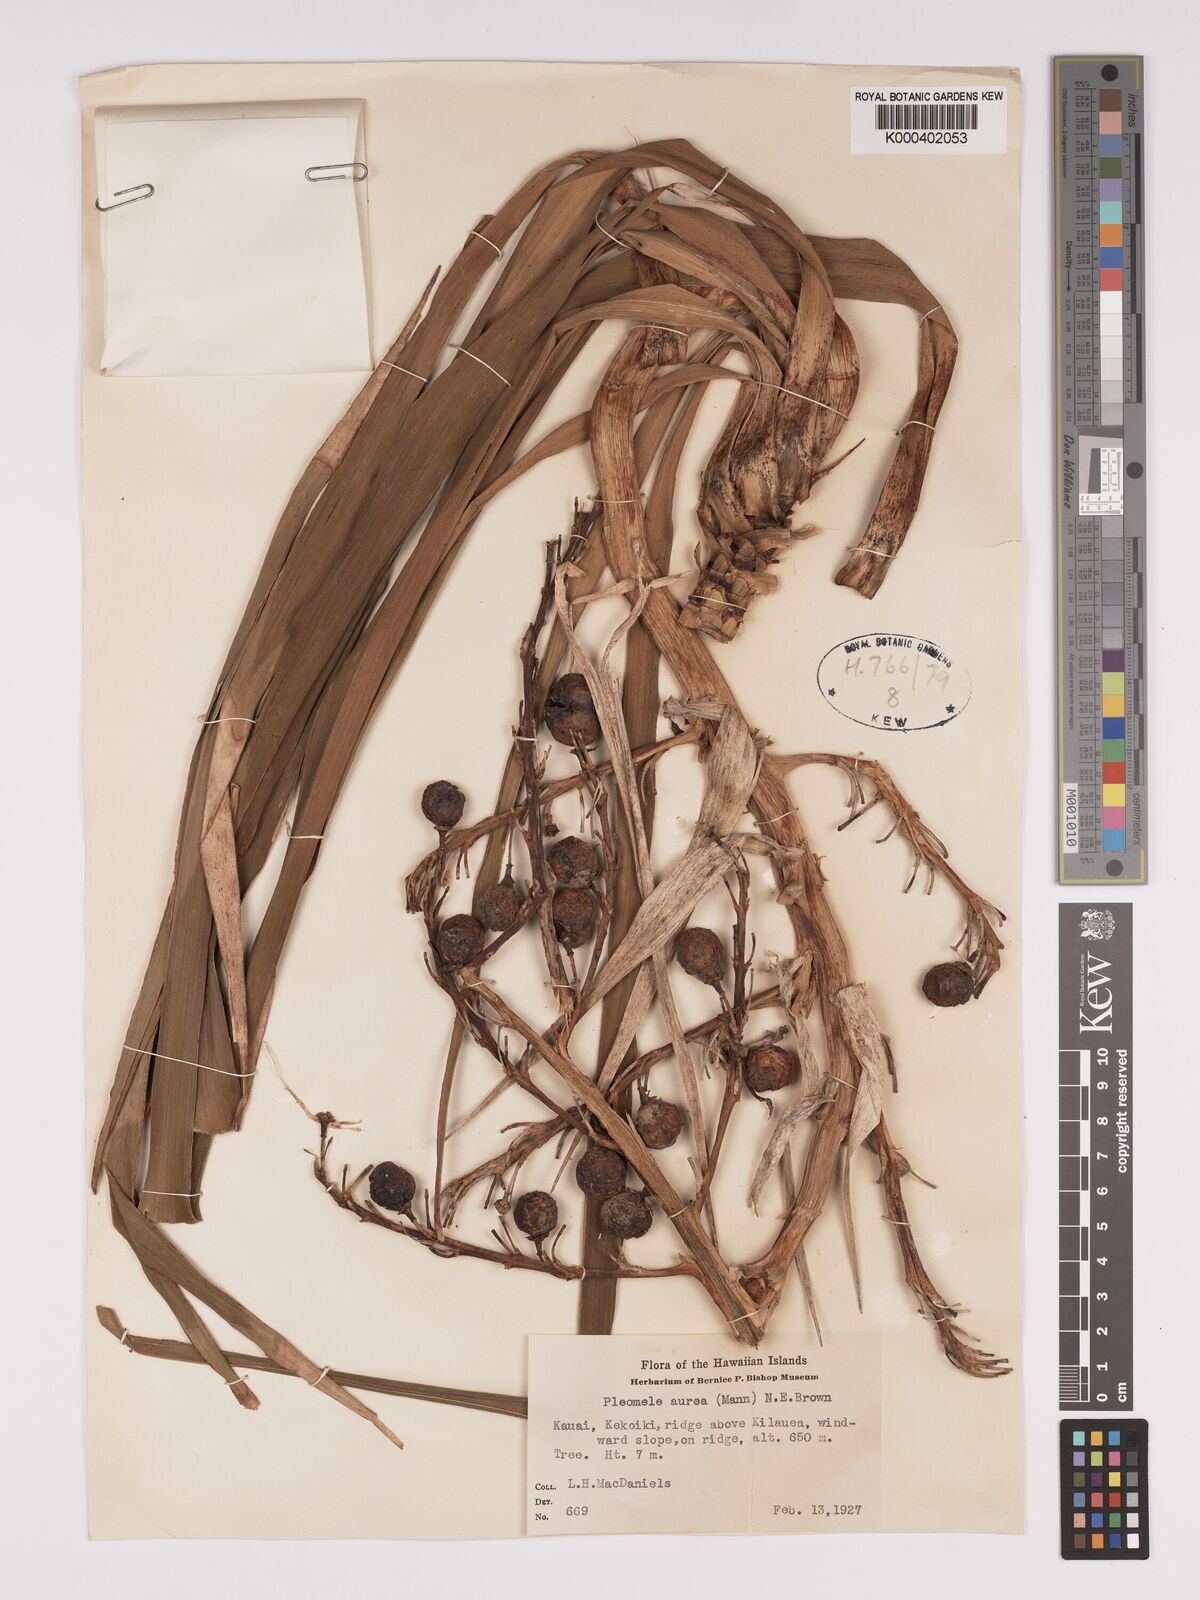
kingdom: Plantae
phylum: Tracheophyta
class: Liliopsida
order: Asparagales
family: Asparagaceae
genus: Dracaena
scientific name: Dracaena aurea
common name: Golden dracaena
